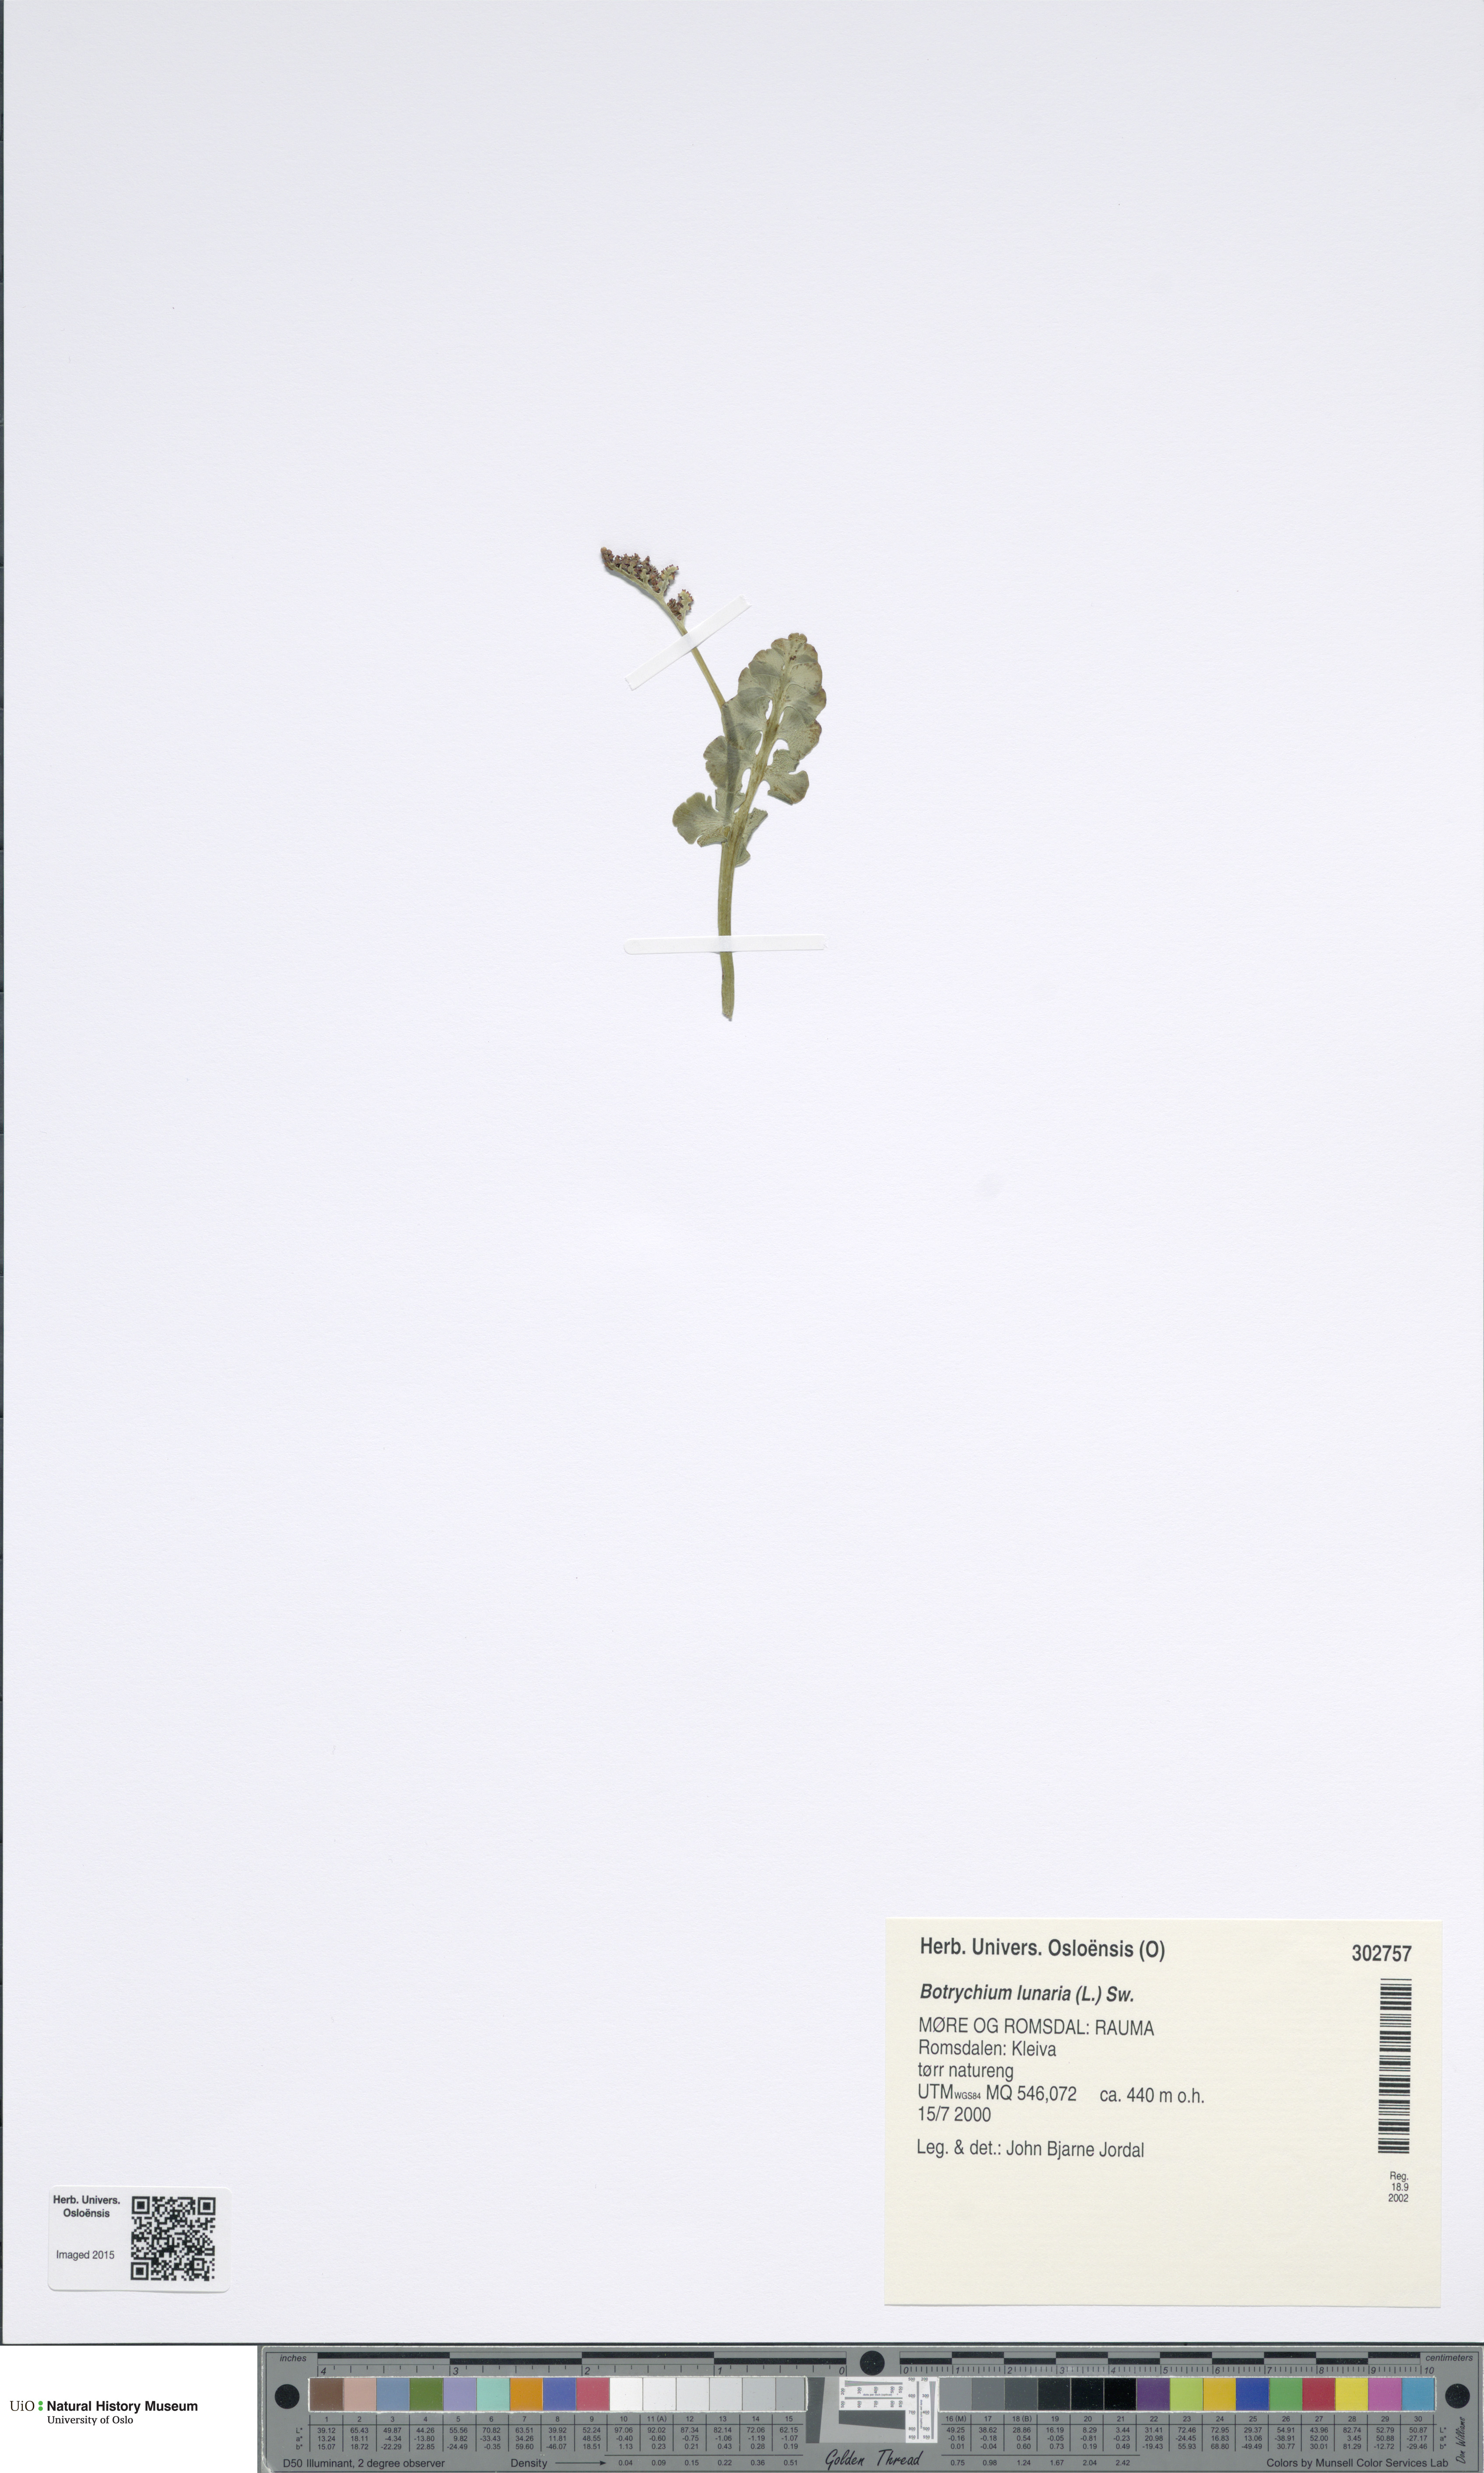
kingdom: Plantae
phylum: Tracheophyta
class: Polypodiopsida
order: Ophioglossales
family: Ophioglossaceae
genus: Botrychium
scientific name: Botrychium lunaria
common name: Moonwort
